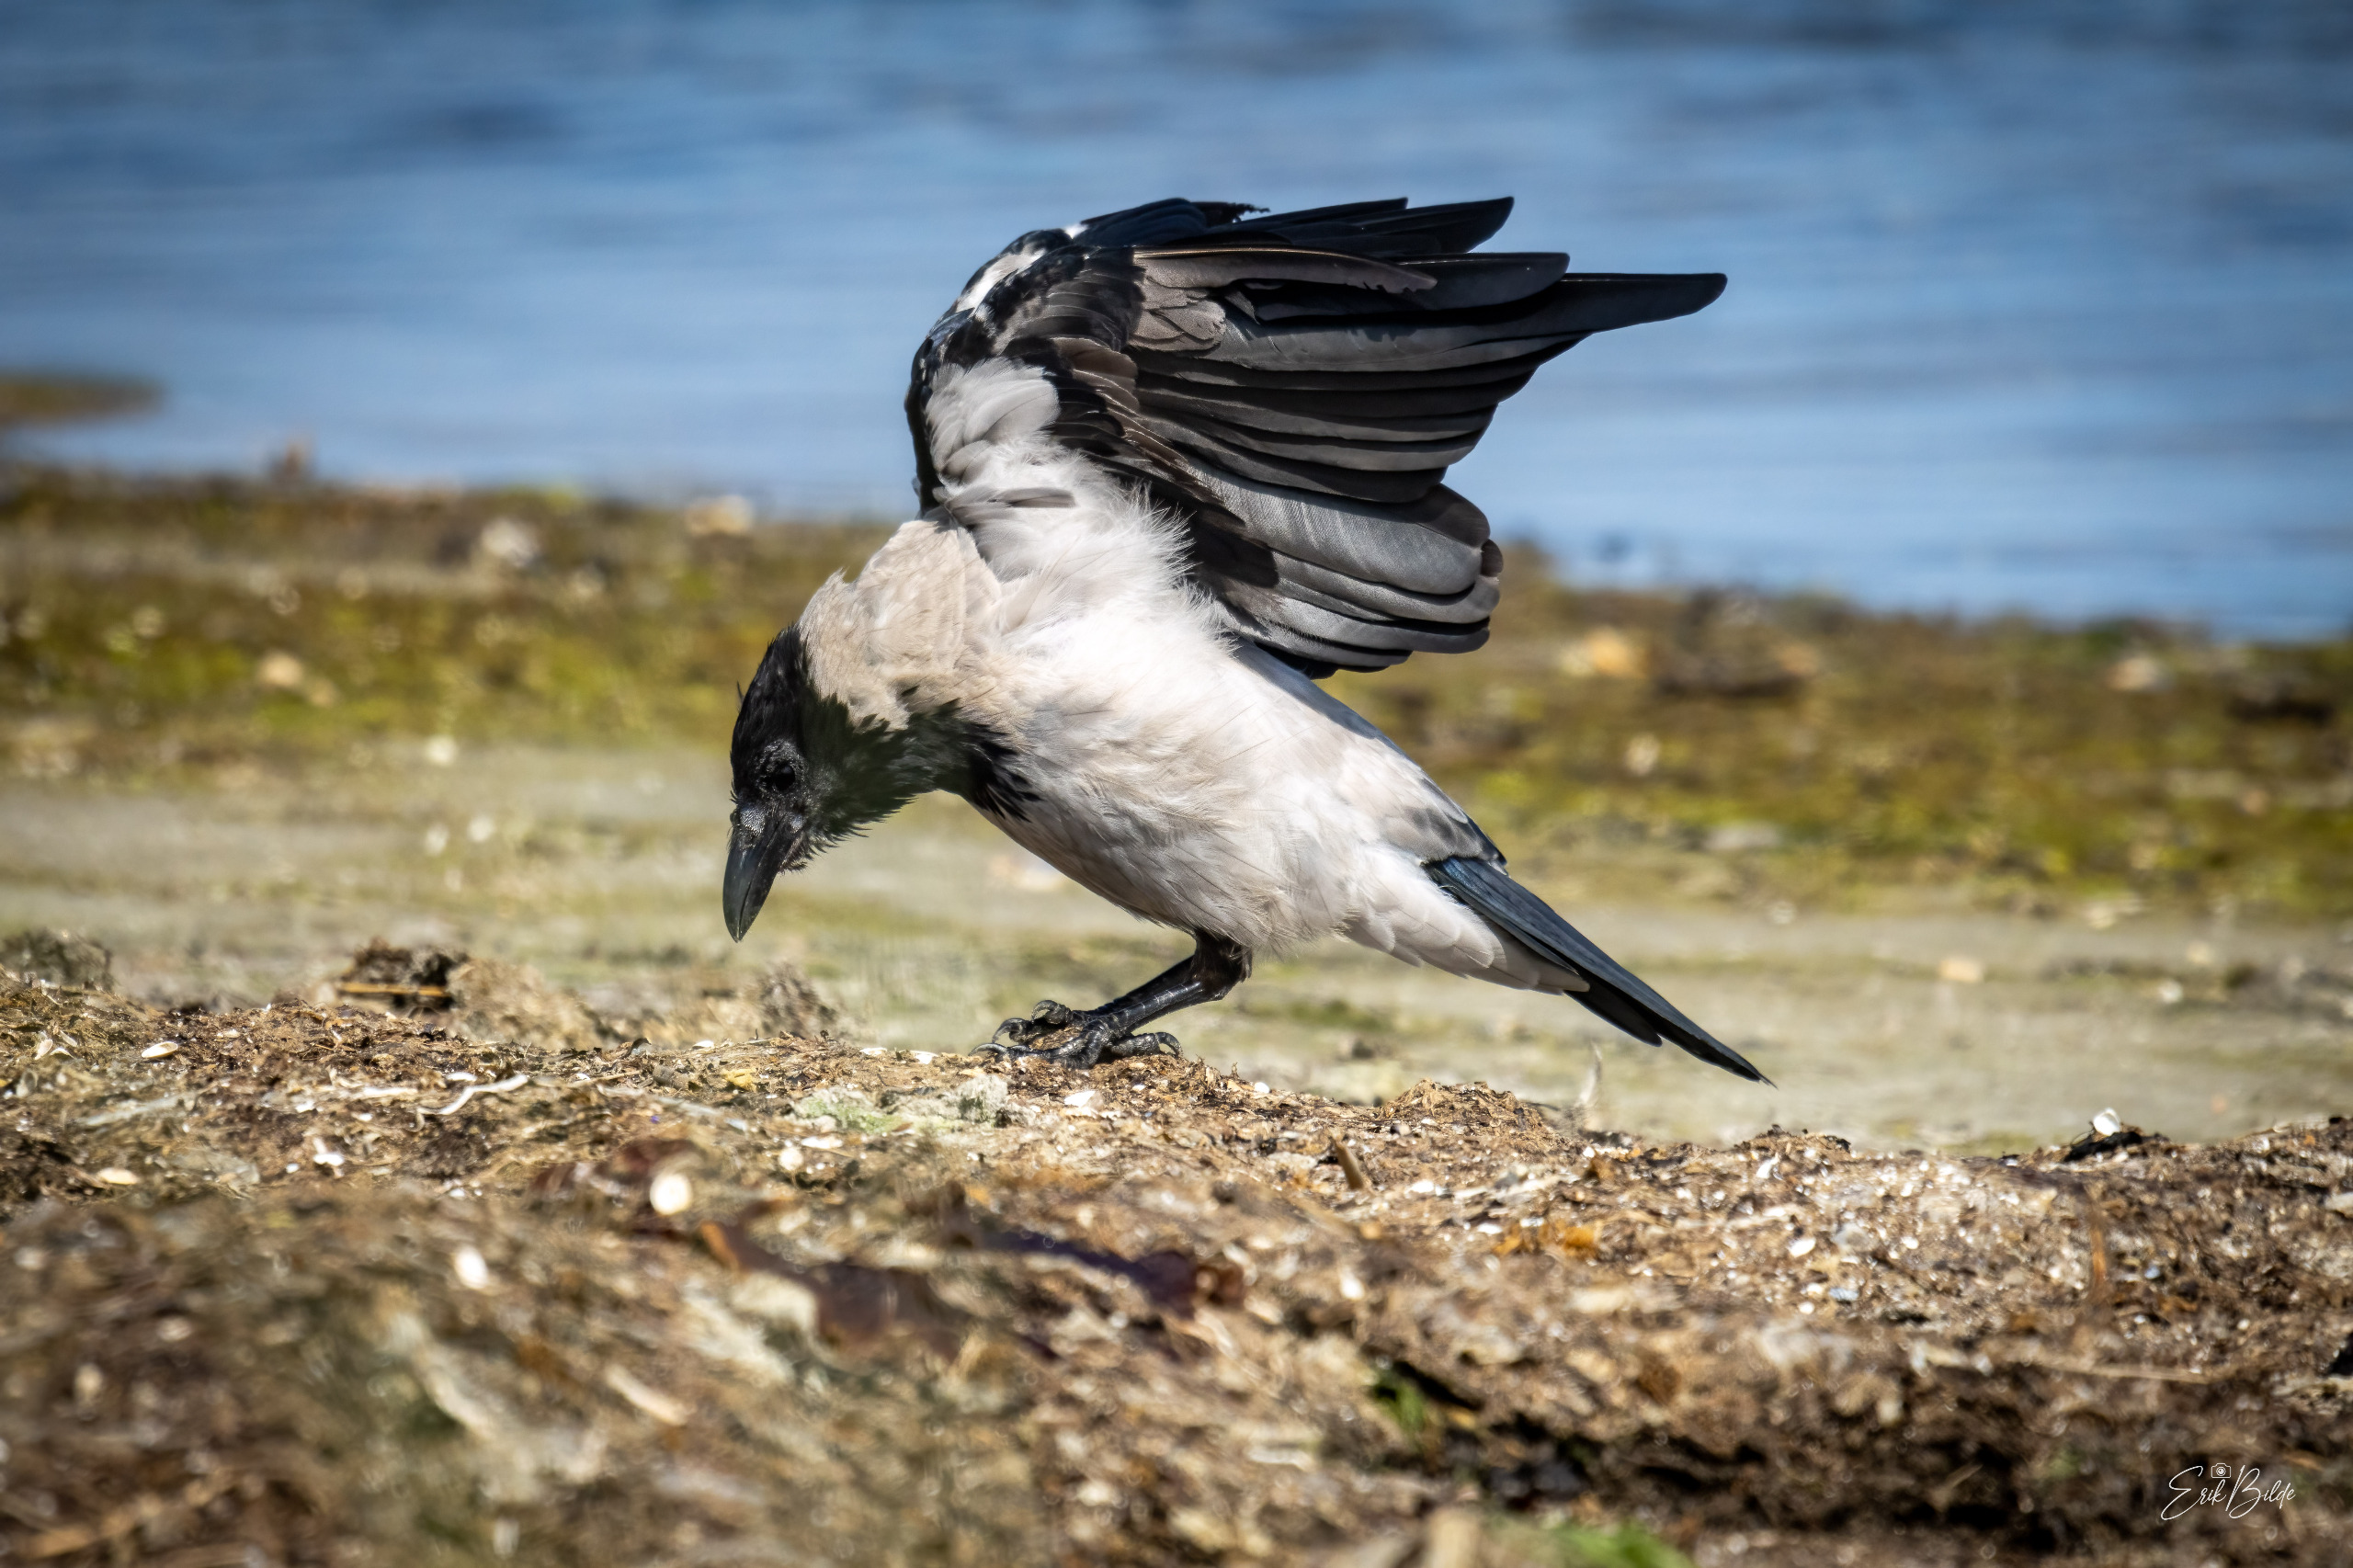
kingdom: Animalia
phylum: Chordata
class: Aves
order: Passeriformes
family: Corvidae
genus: Corvus
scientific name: Corvus cornix
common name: Gråkrage
